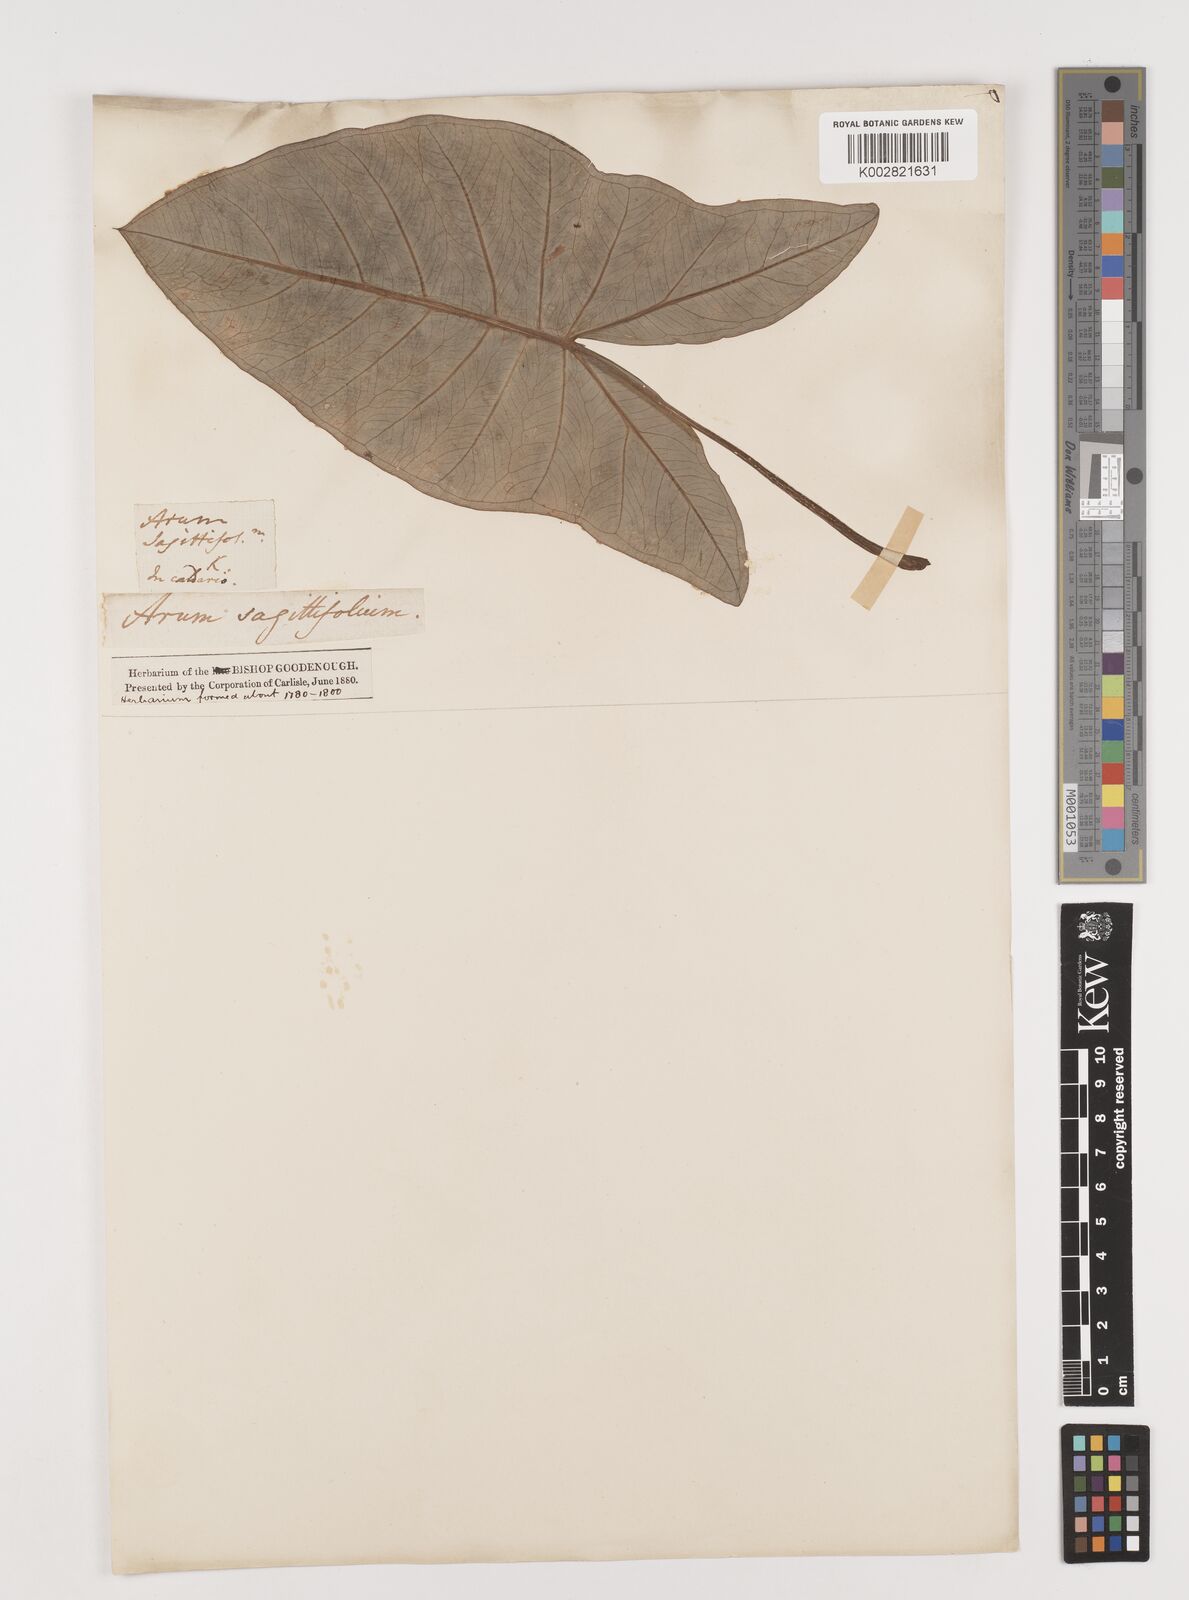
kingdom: Plantae
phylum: Tracheophyta
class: Liliopsida
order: Alismatales
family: Araceae
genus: Xanthosoma
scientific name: Xanthosoma sagittifolium
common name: Arrowleaf elephant's ear
